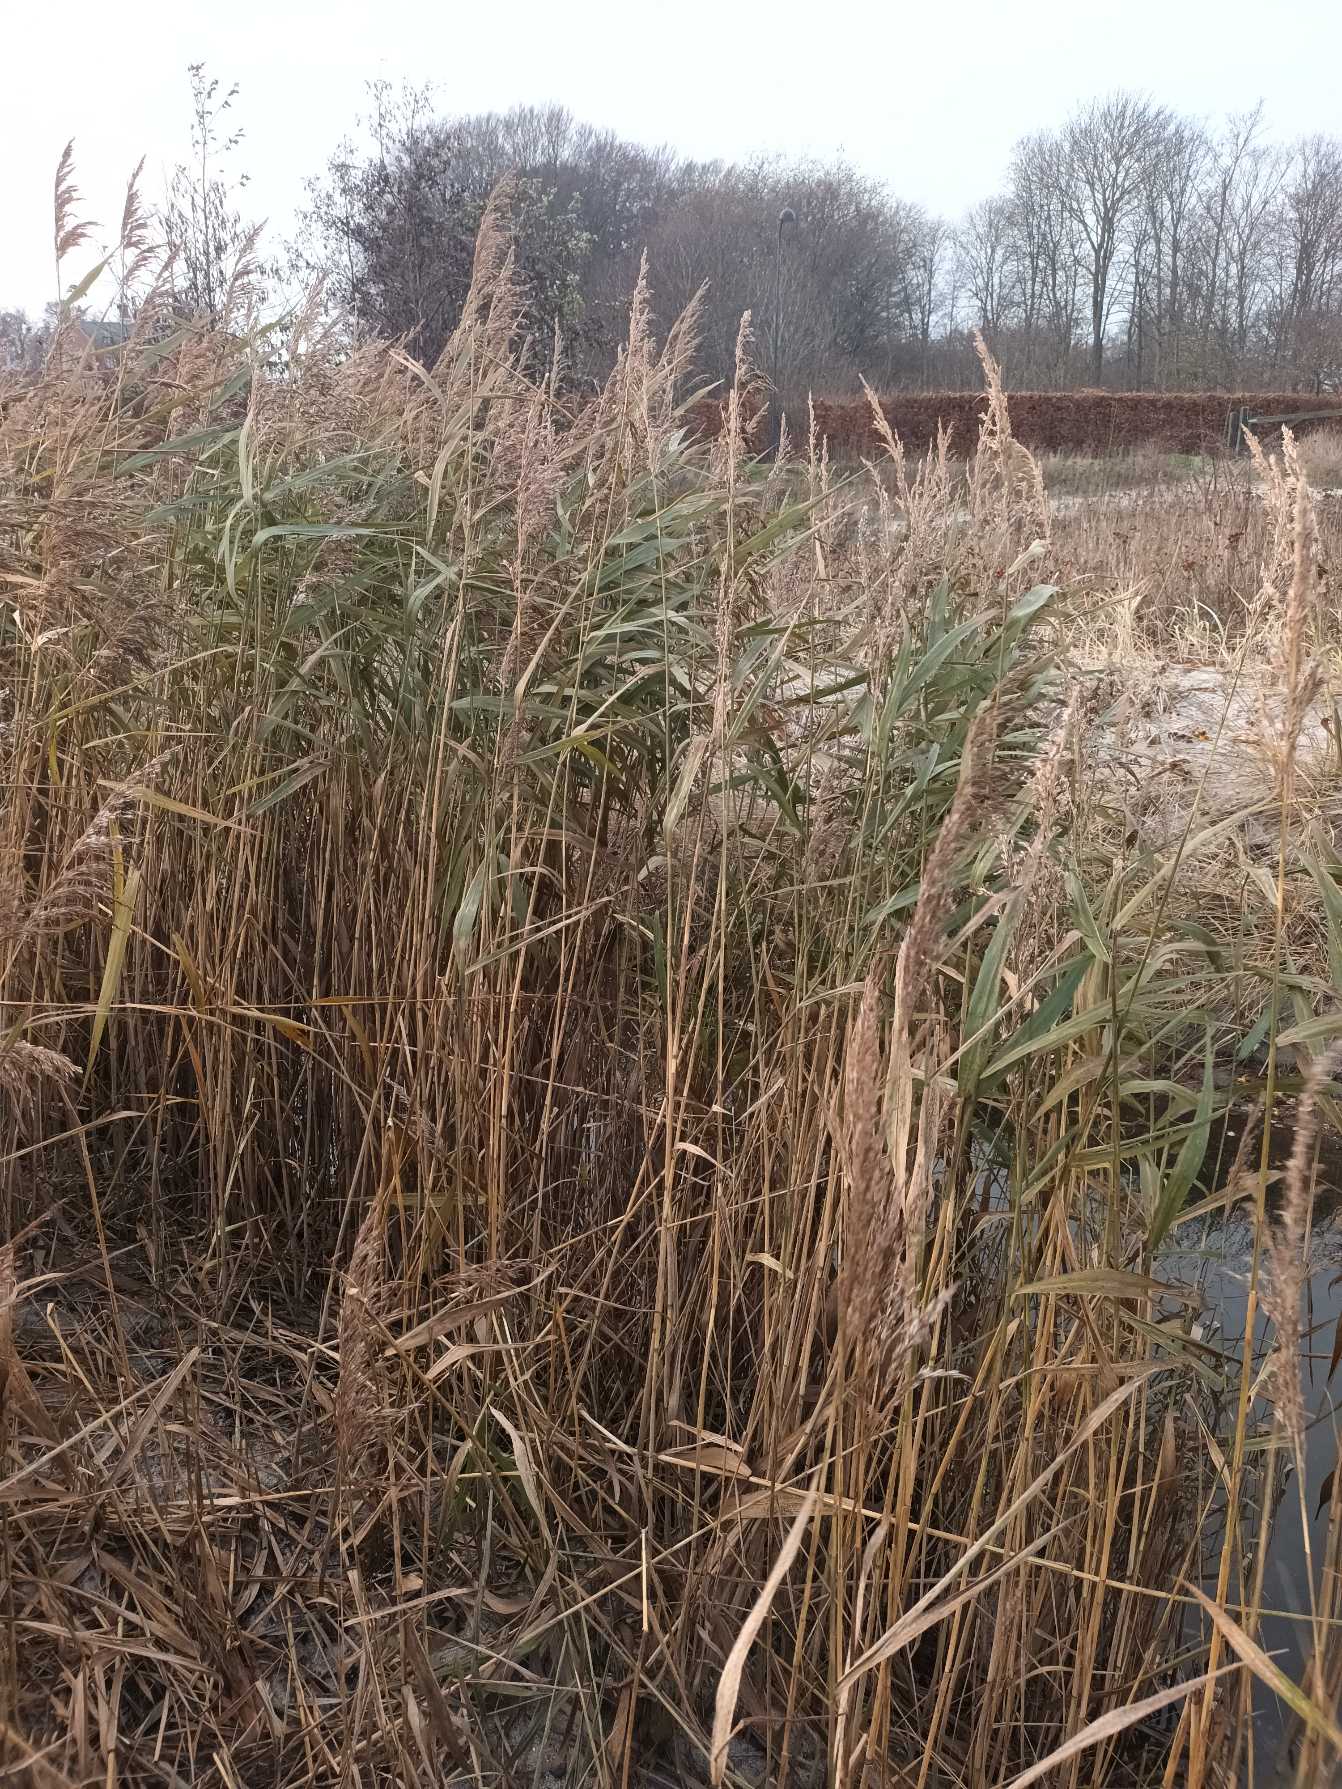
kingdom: Plantae
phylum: Tracheophyta
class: Liliopsida
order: Poales
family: Poaceae
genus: Phragmites
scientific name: Phragmites australis
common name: Tagrør
